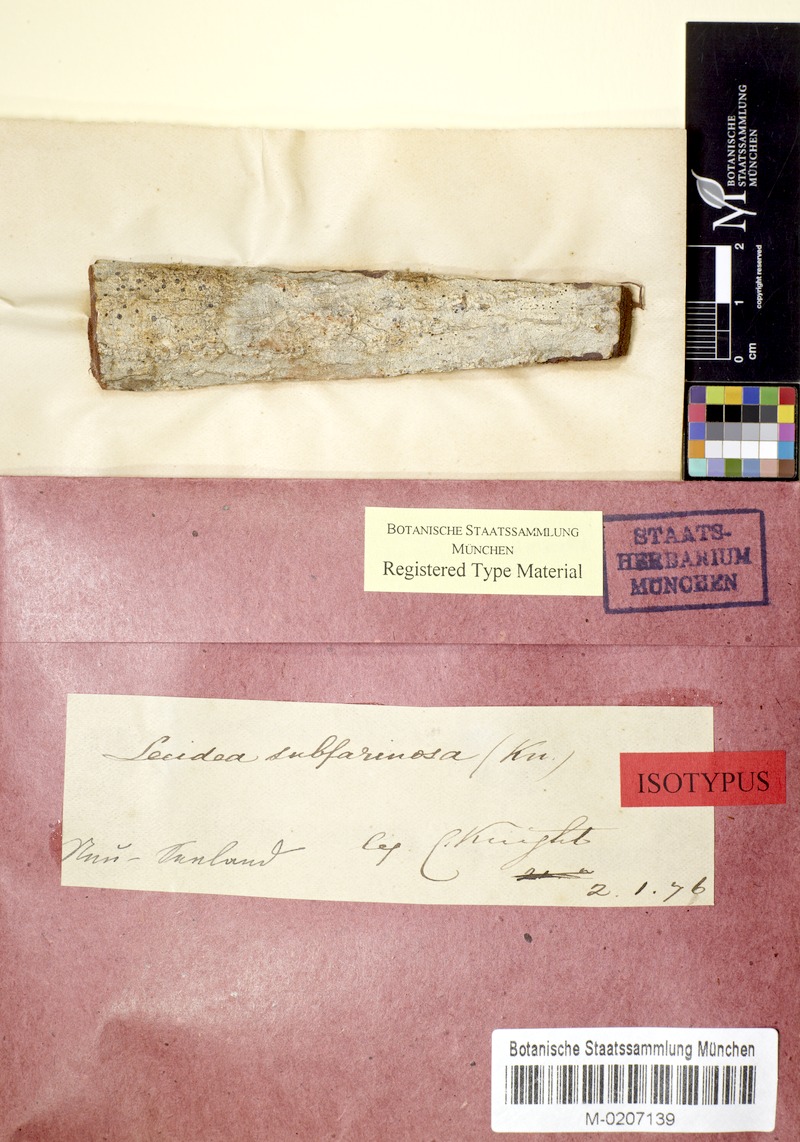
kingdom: Fungi
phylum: Ascomycota
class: Arthoniomycetes
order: Arthoniales
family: Roccellaceae
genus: Lecanactis
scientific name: Lecanactis subfarinosa
